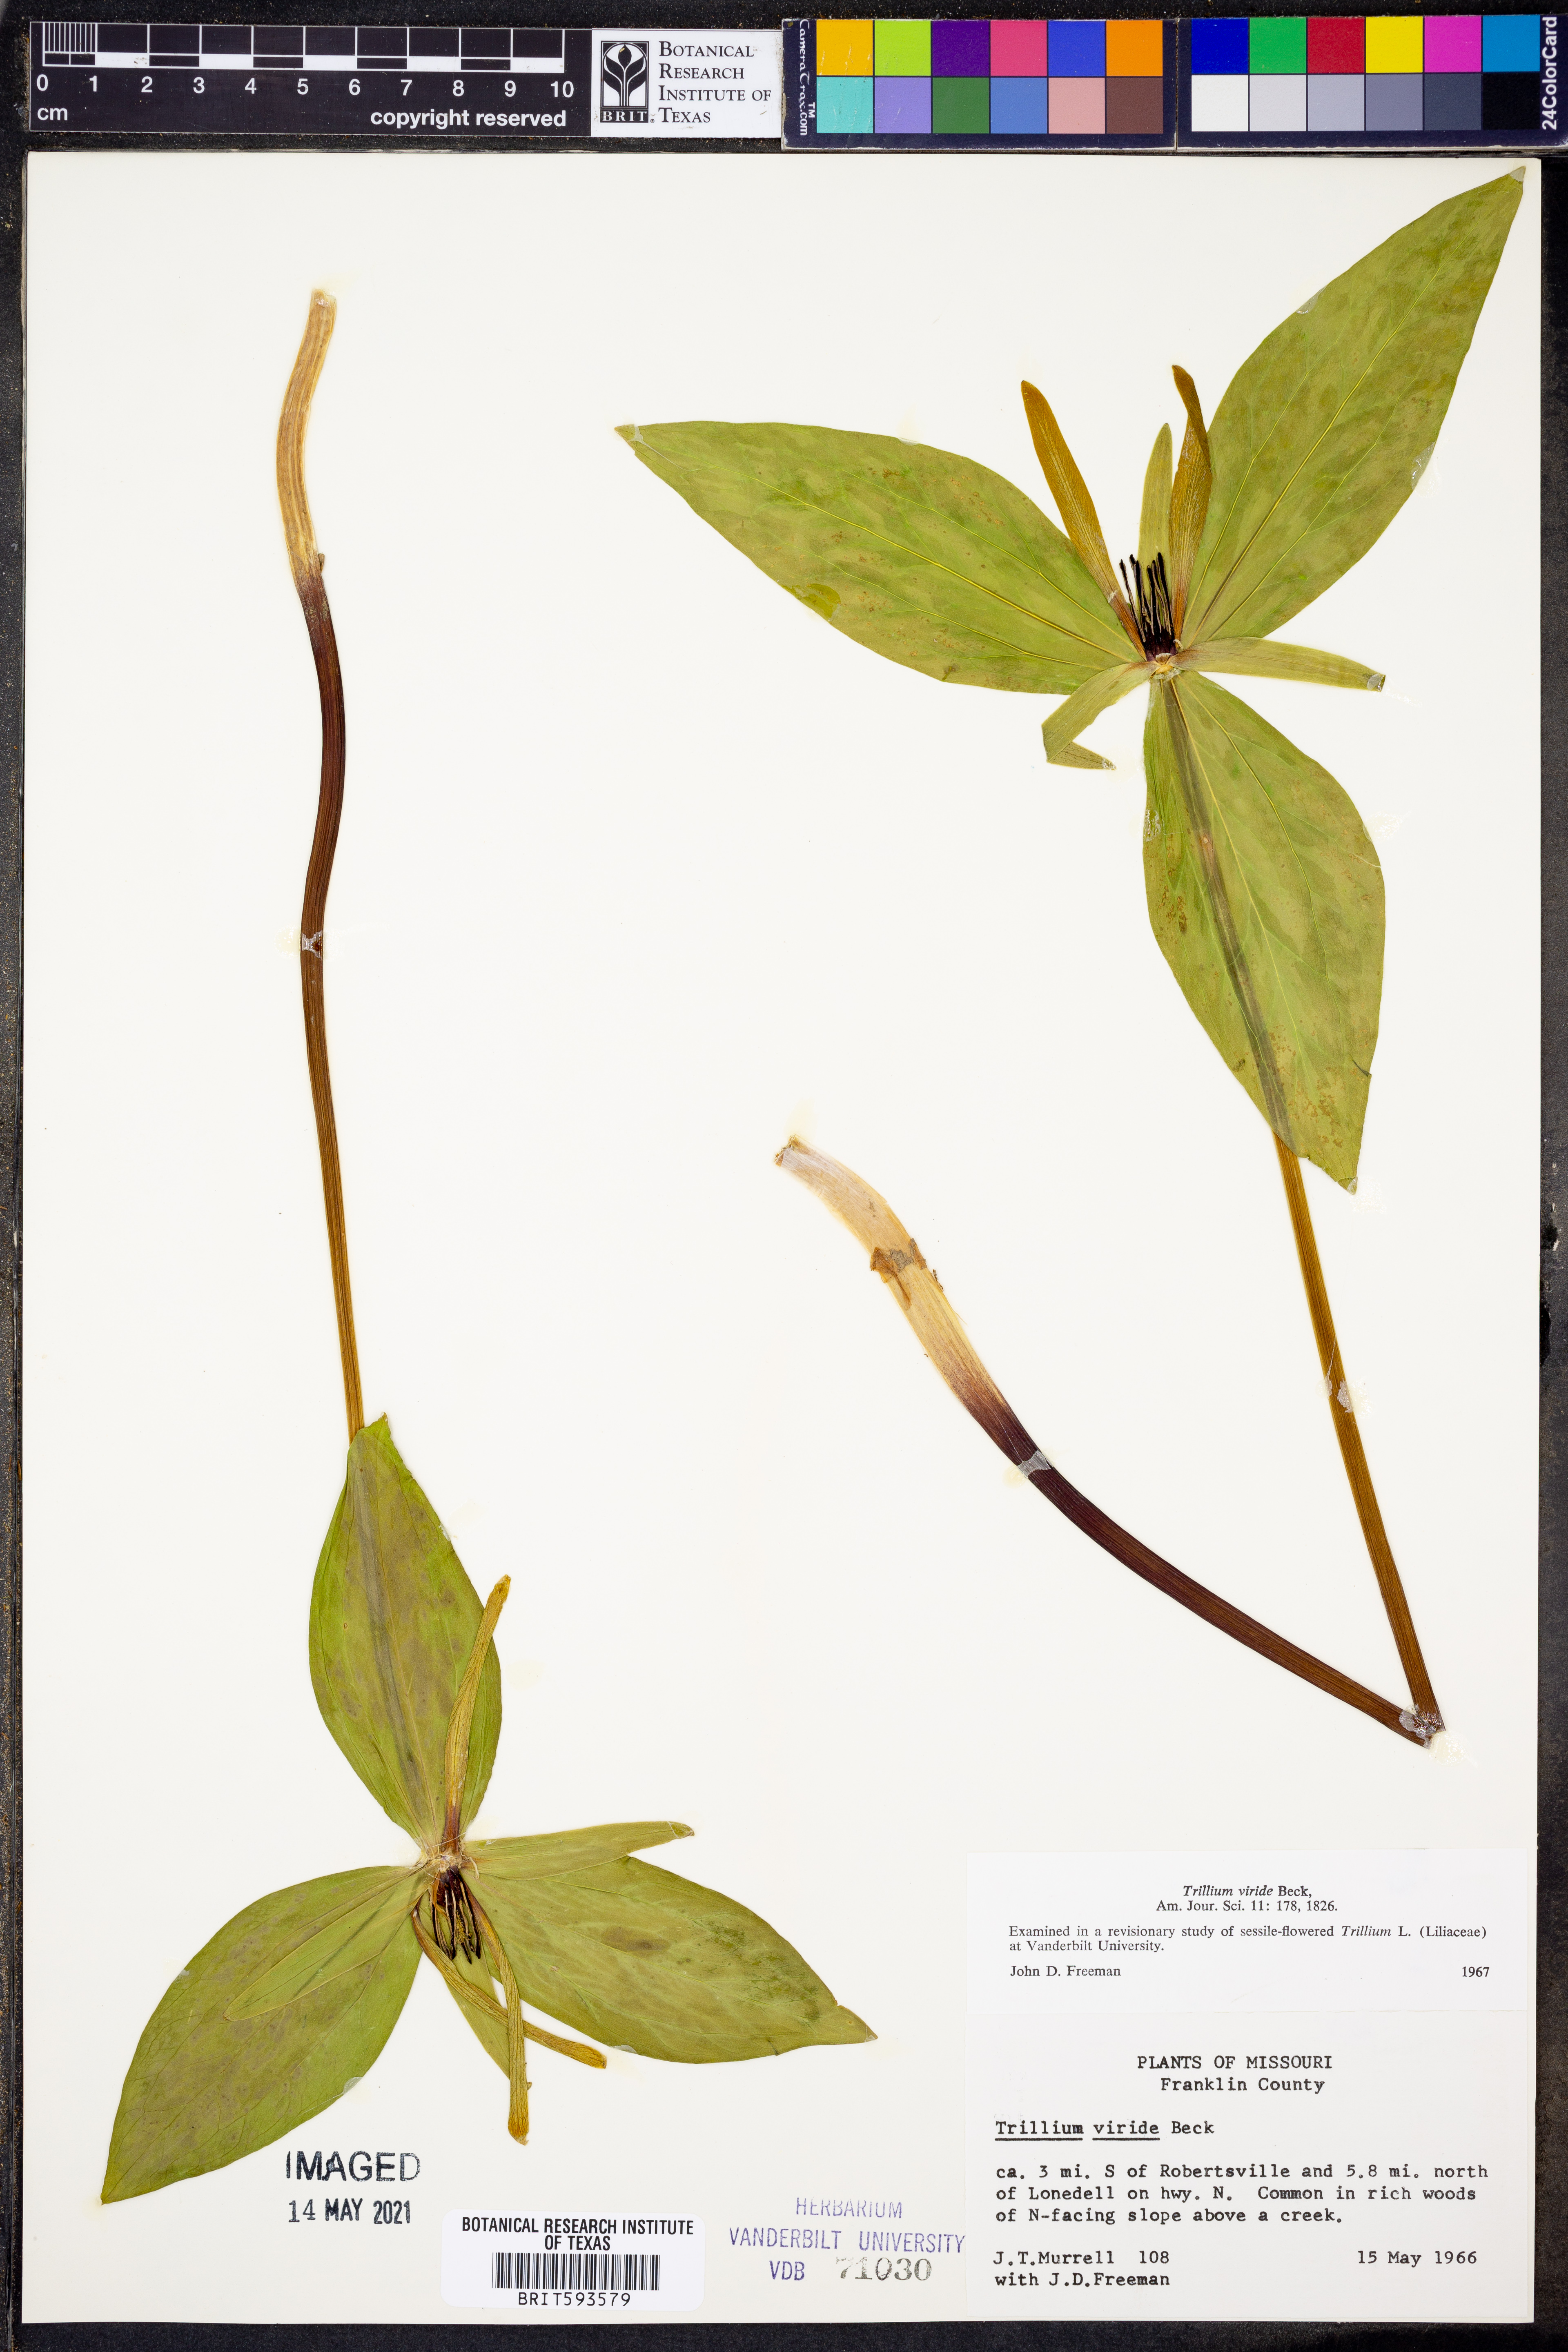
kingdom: Plantae
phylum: Tracheophyta
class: Liliopsida
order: Liliales
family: Melanthiaceae
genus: Trillium
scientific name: Trillium viride
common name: Green trillium
